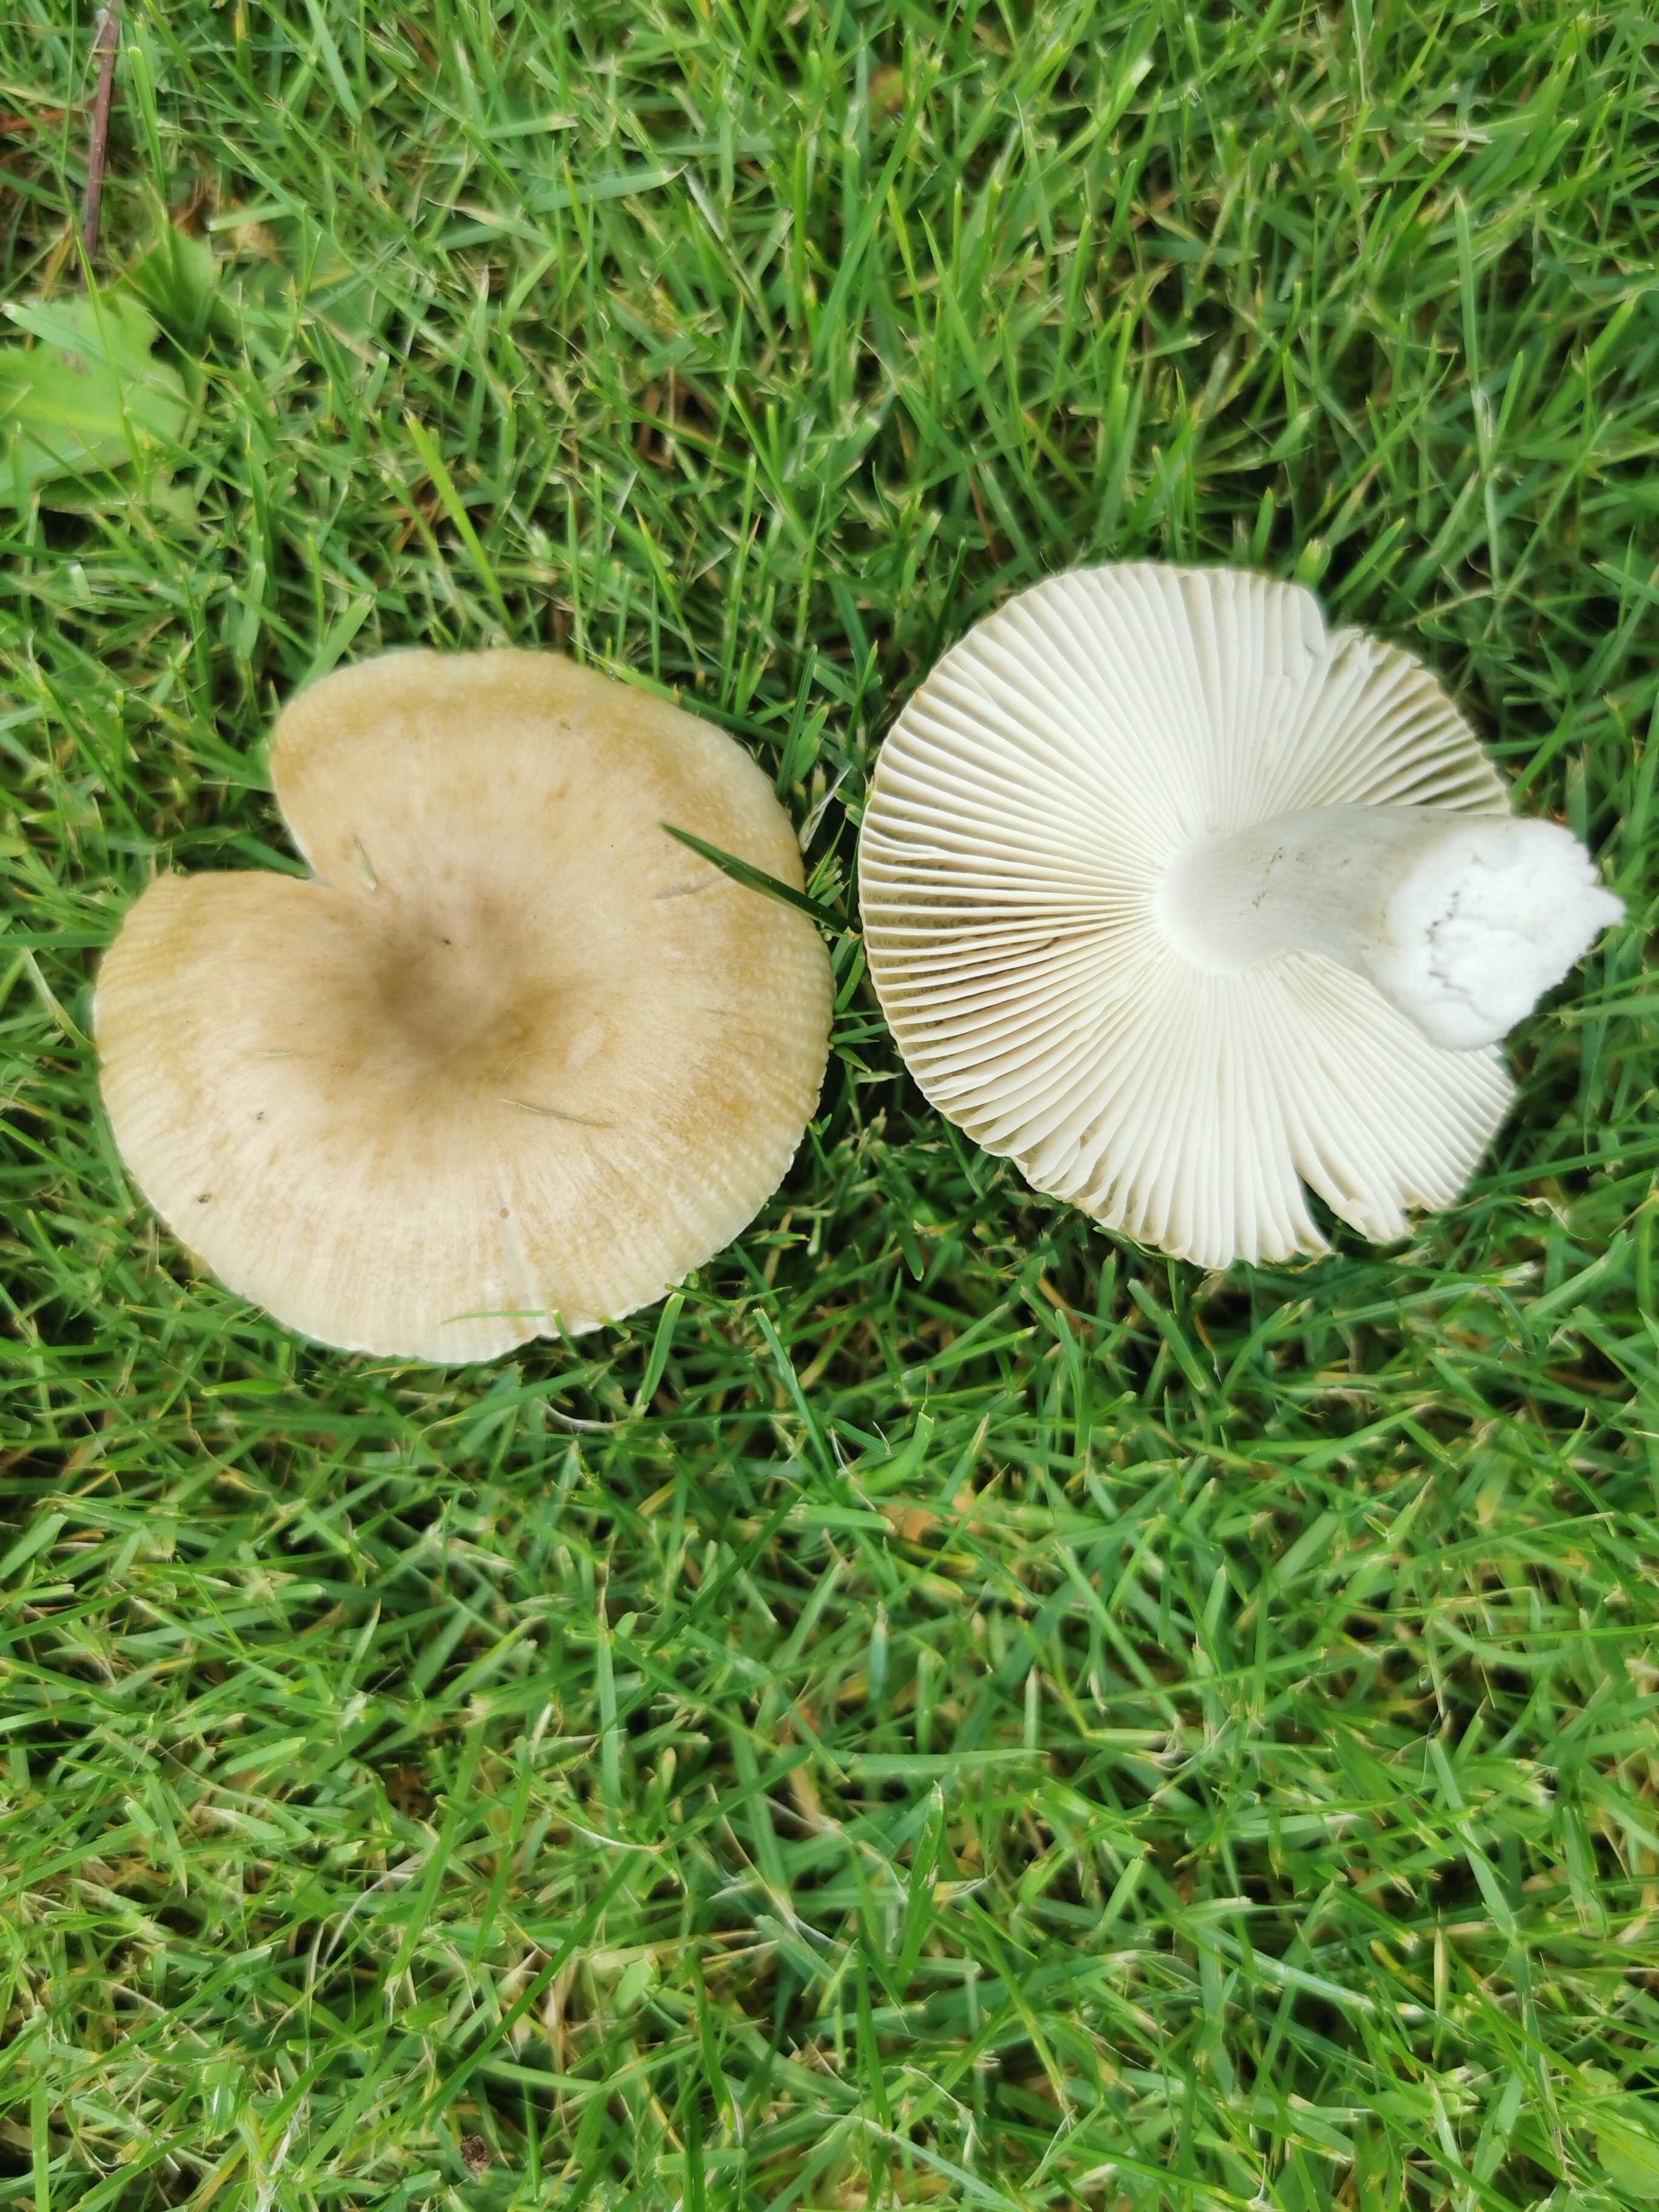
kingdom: Fungi
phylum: Basidiomycota
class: Agaricomycetes
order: Russulales
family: Russulaceae
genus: Russula
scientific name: Russula recondita
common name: mild kam-skørhat
